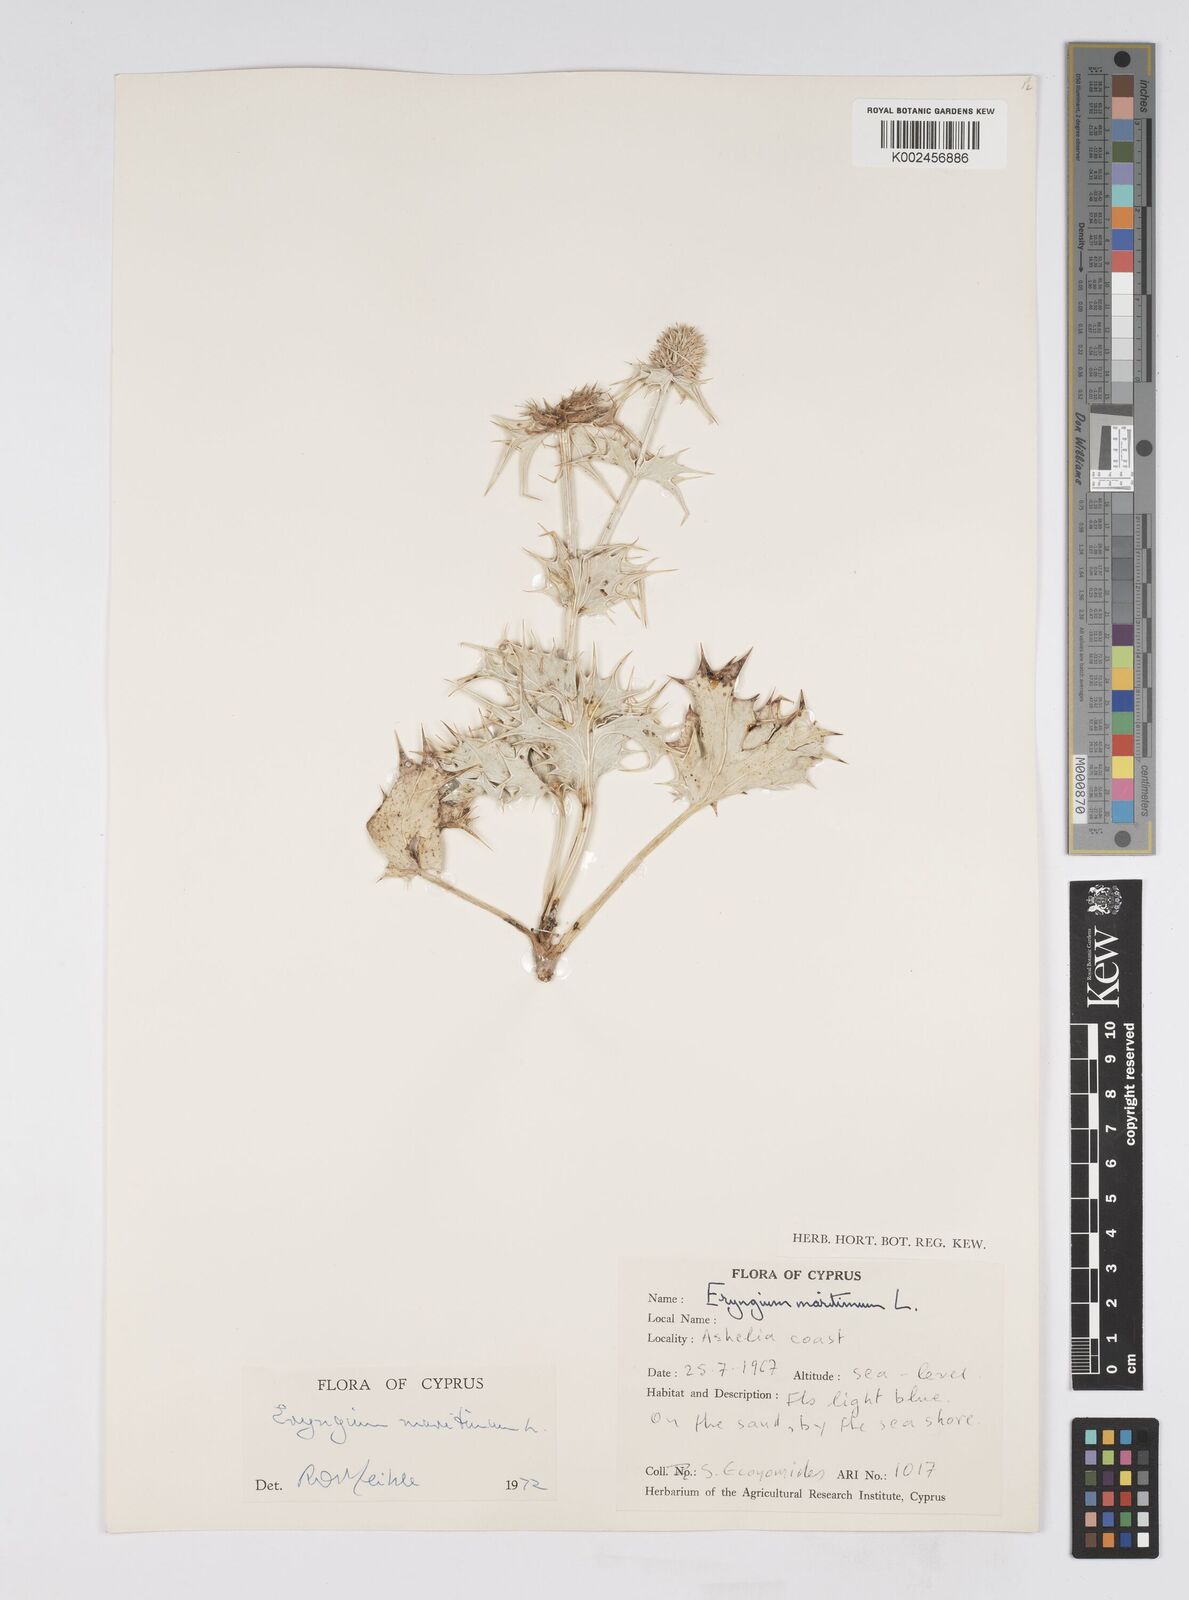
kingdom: Plantae
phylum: Tracheophyta
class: Magnoliopsida
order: Apiales
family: Apiaceae
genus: Eryngium
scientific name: Eryngium maritimum
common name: Sea-holly
